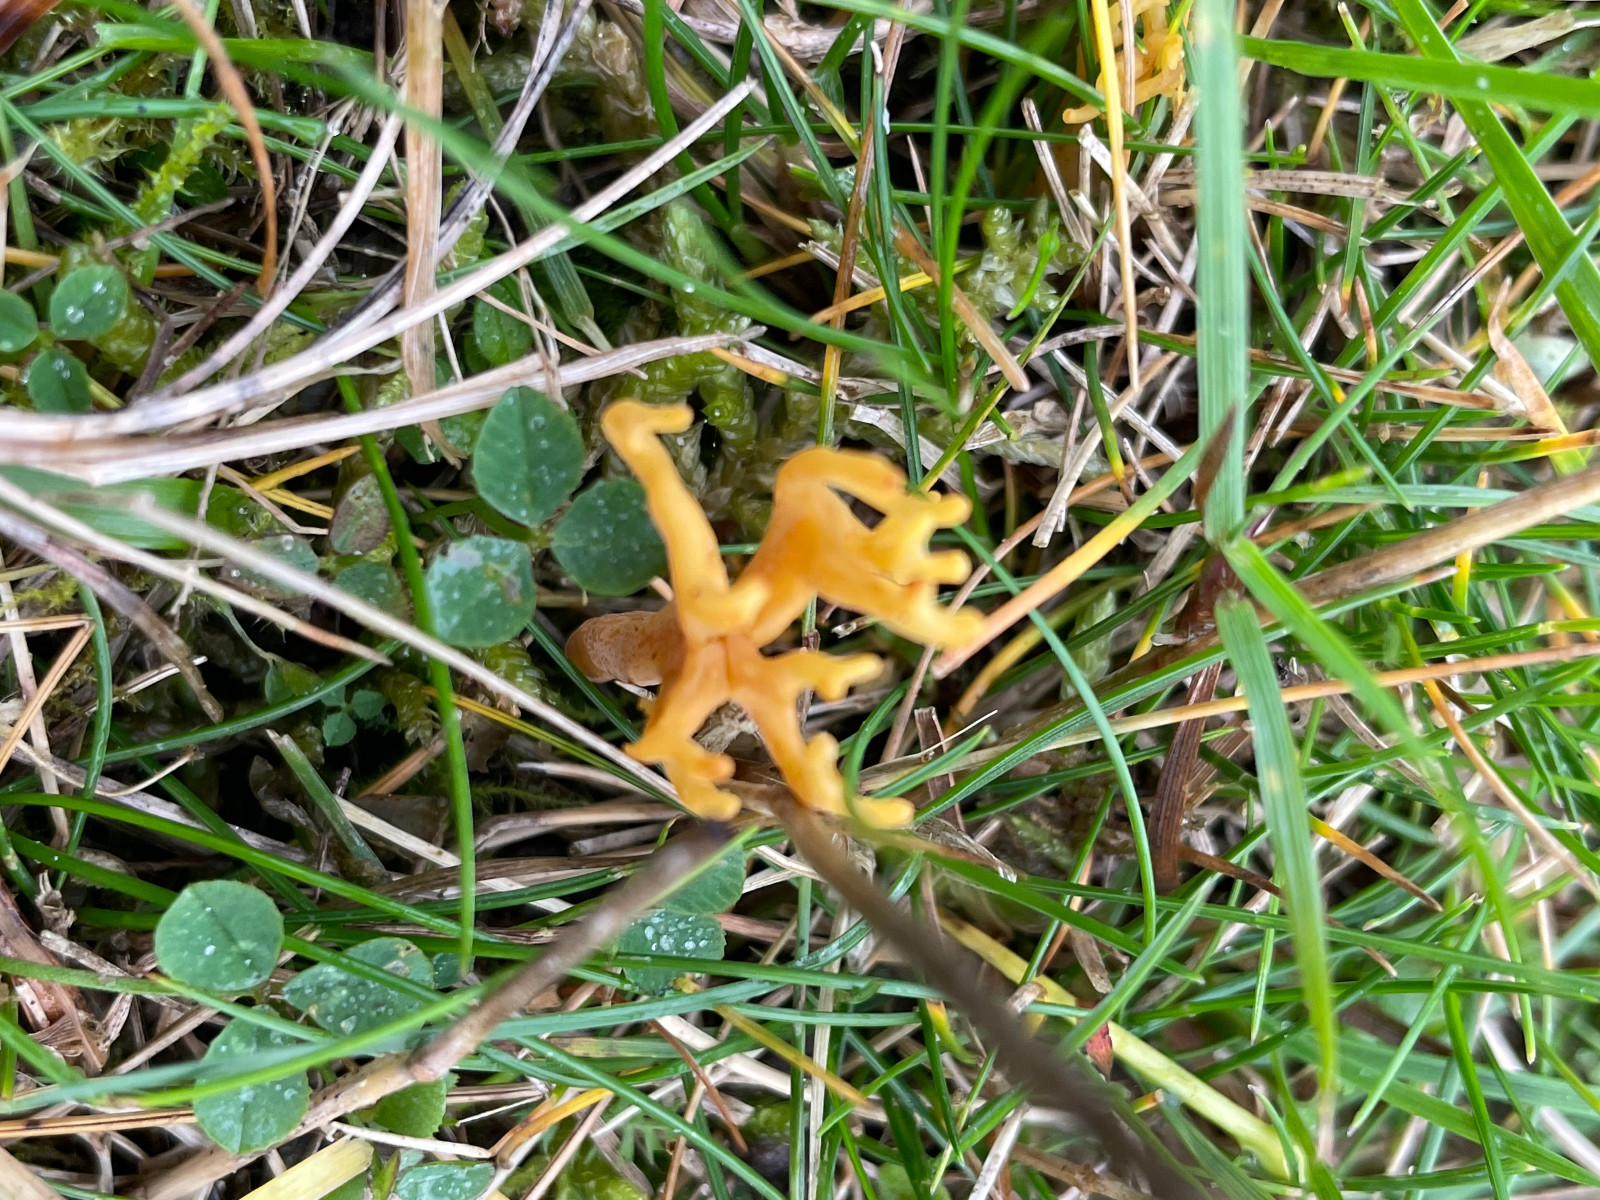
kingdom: Fungi
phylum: Basidiomycota
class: Agaricomycetes
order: Agaricales
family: Clavariaceae
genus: Clavulinopsis
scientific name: Clavulinopsis corniculata
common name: eng-køllesvamp
